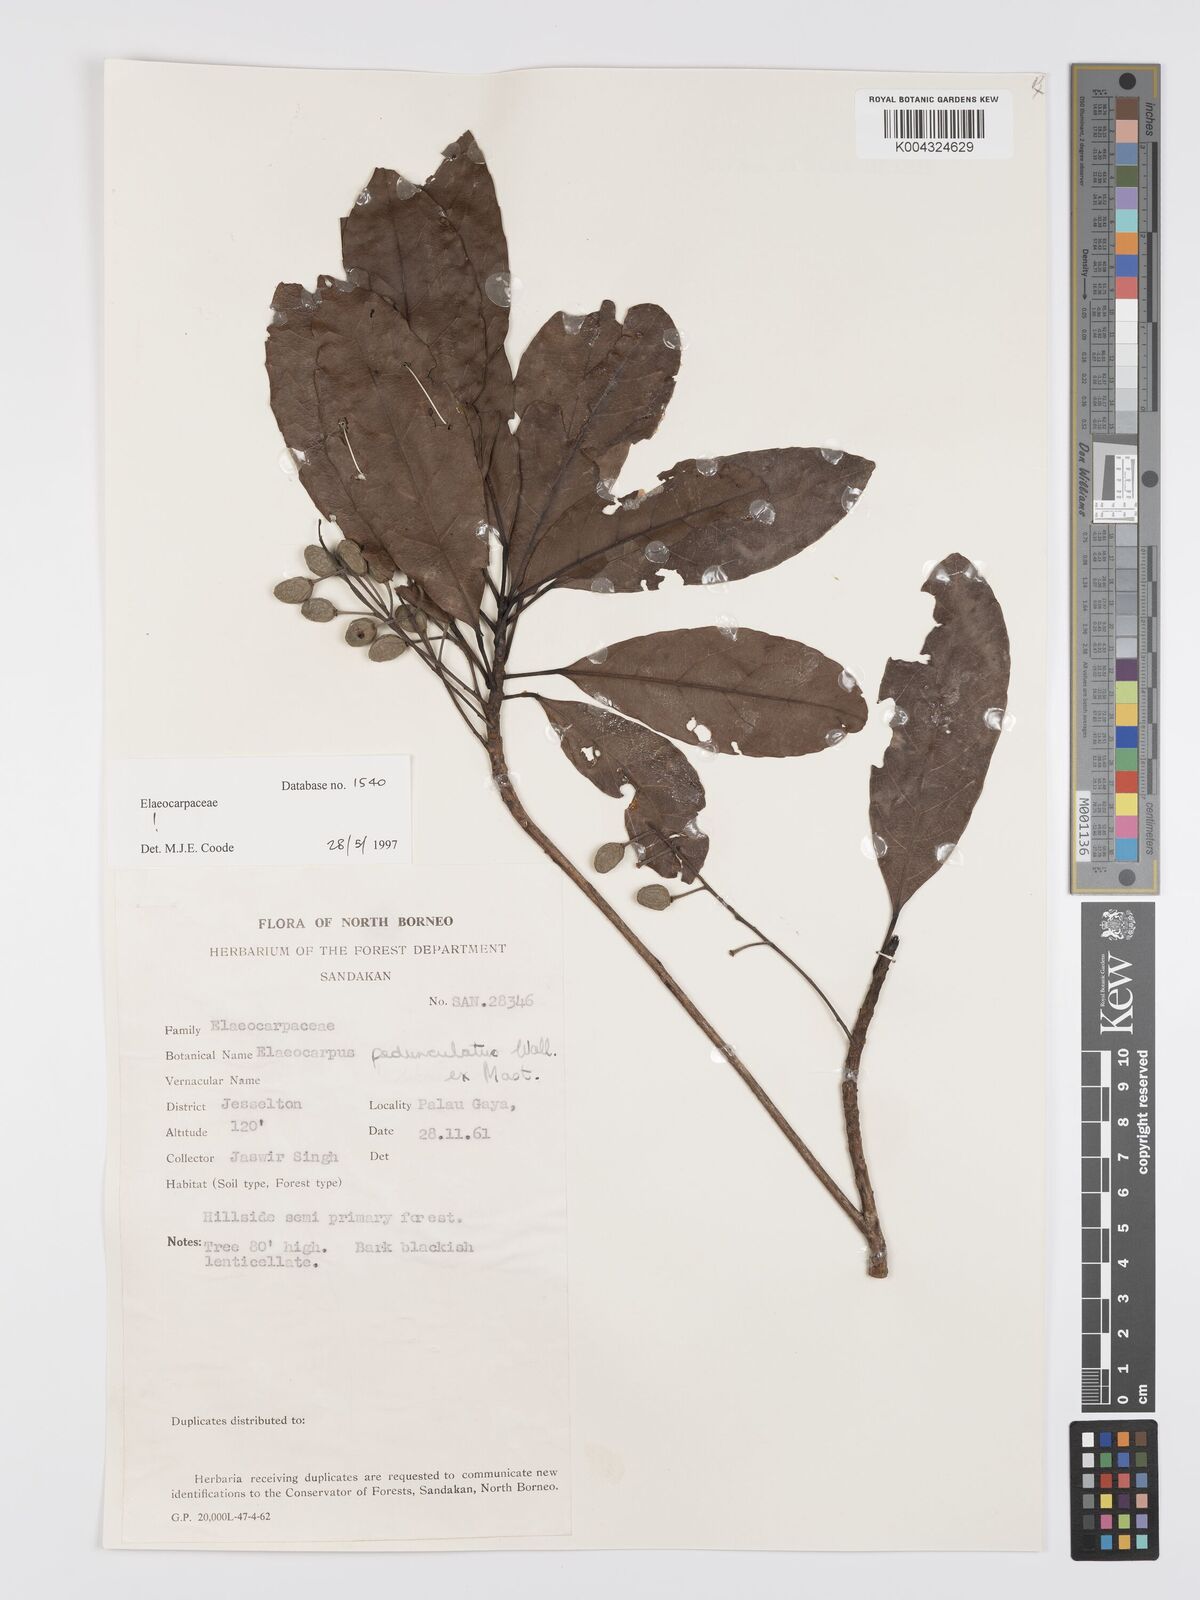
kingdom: Plantae
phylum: Tracheophyta
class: Magnoliopsida
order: Oxalidales
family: Elaeocarpaceae
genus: Elaeocarpus
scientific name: Elaeocarpus pedunculatus
